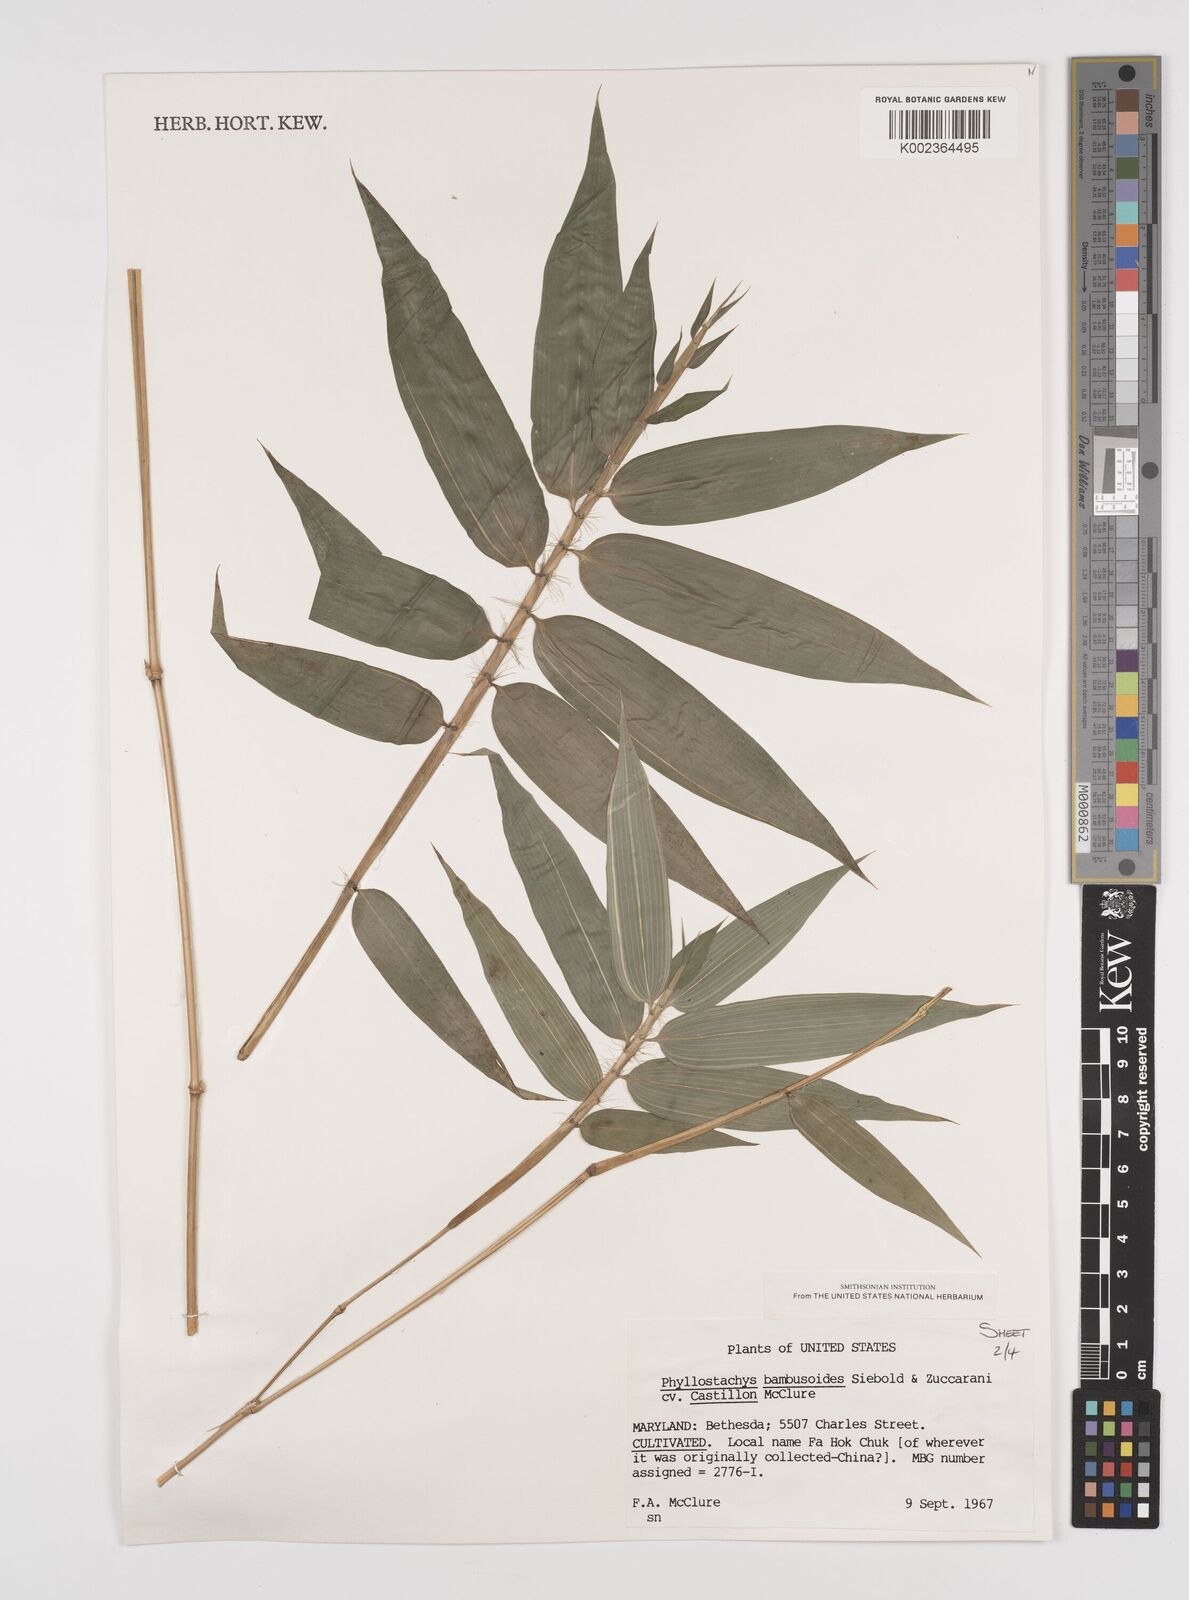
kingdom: Plantae
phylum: Tracheophyta
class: Liliopsida
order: Poales
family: Poaceae
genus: Phyllostachys
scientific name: Phyllostachys reticulata
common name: Bamboo
